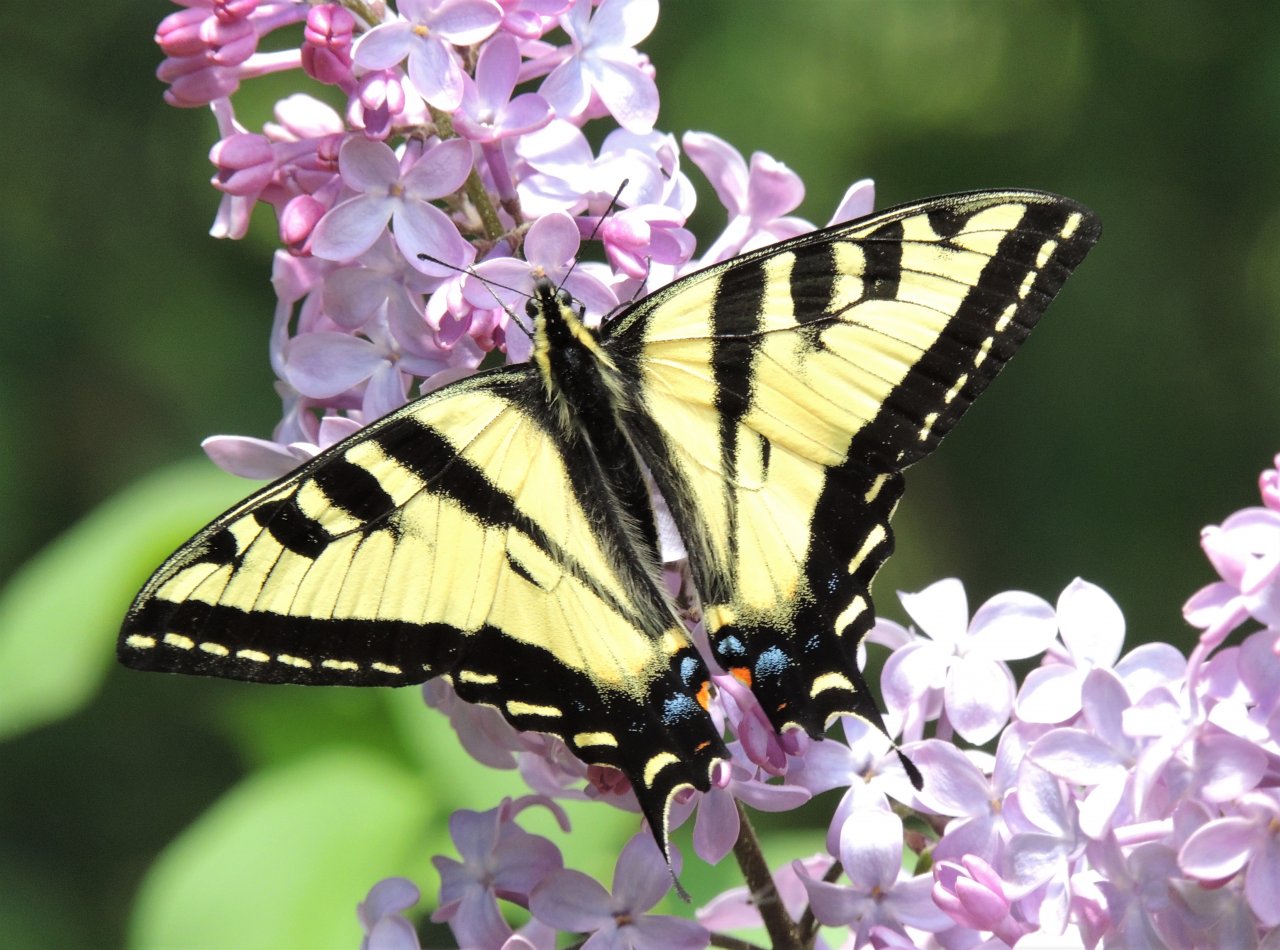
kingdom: Animalia
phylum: Arthropoda
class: Insecta
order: Lepidoptera
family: Papilionidae
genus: Pterourus
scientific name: Pterourus rutulus
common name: Western Tiger Swallowtail
